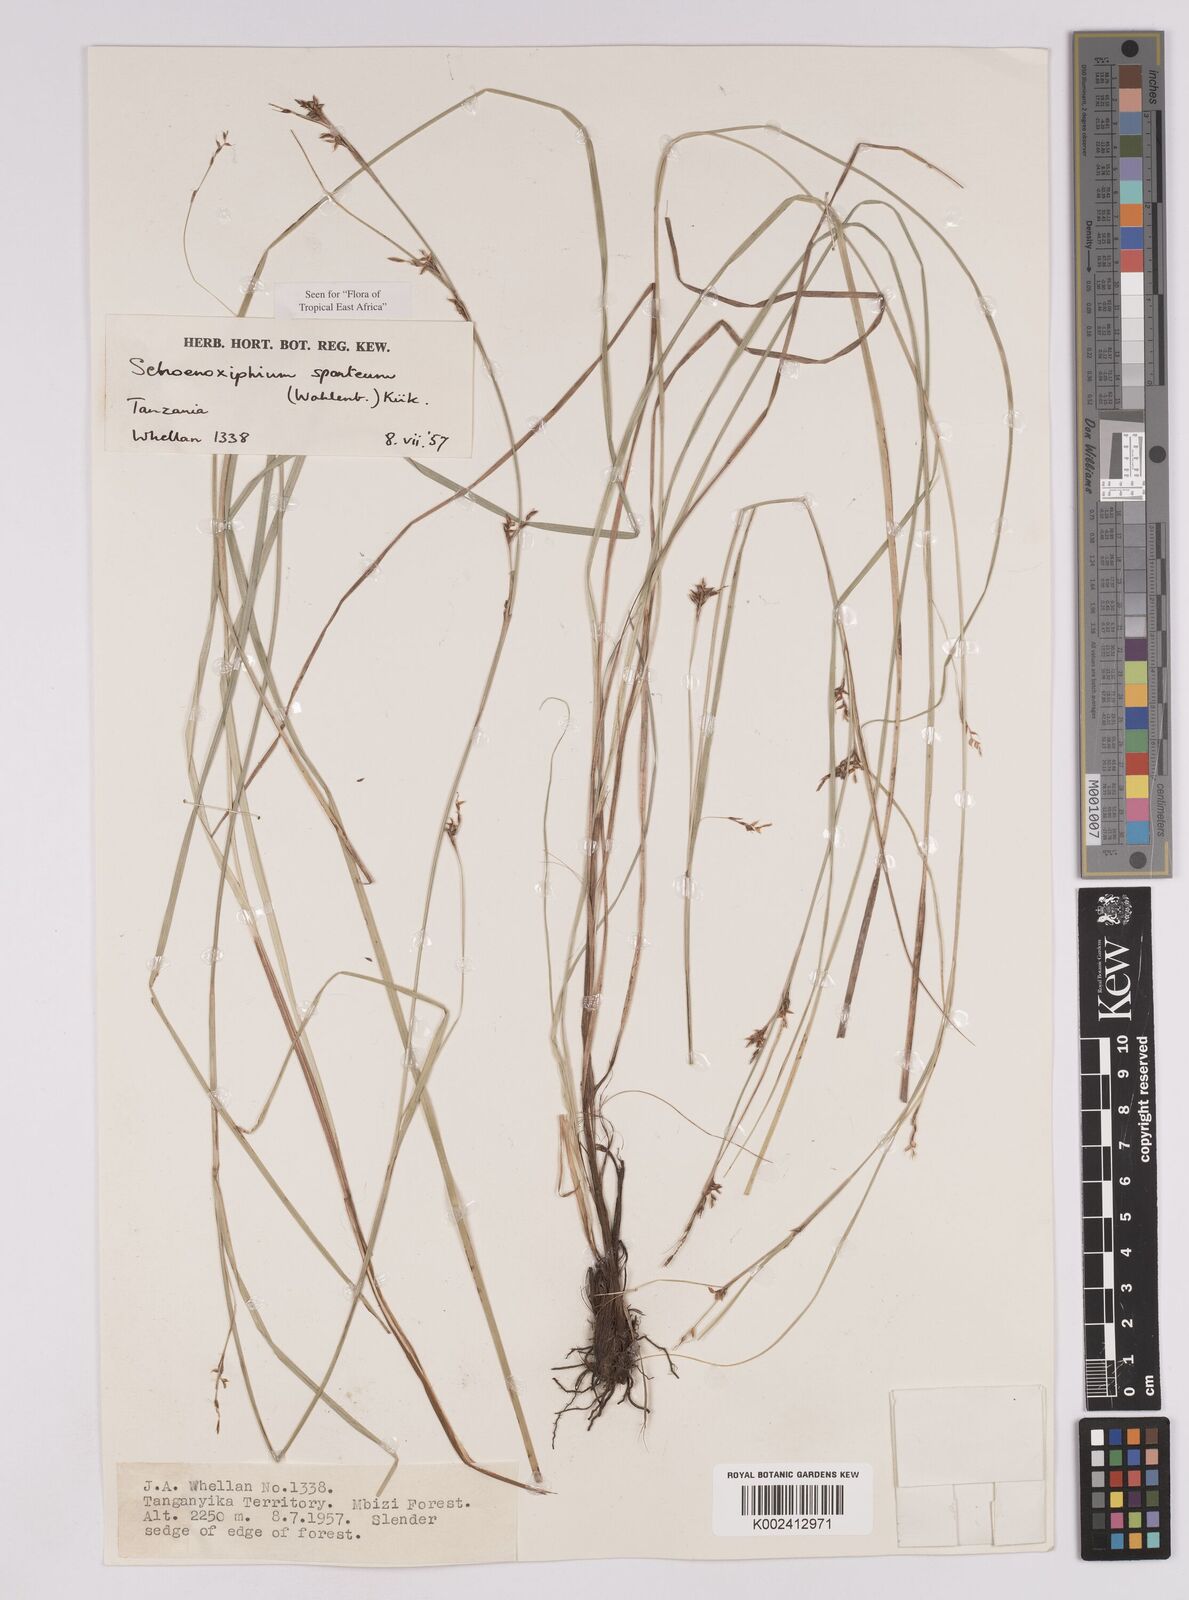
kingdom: Plantae
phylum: Tracheophyta
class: Liliopsida
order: Poales
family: Cyperaceae
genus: Carex
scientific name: Carex spartea
